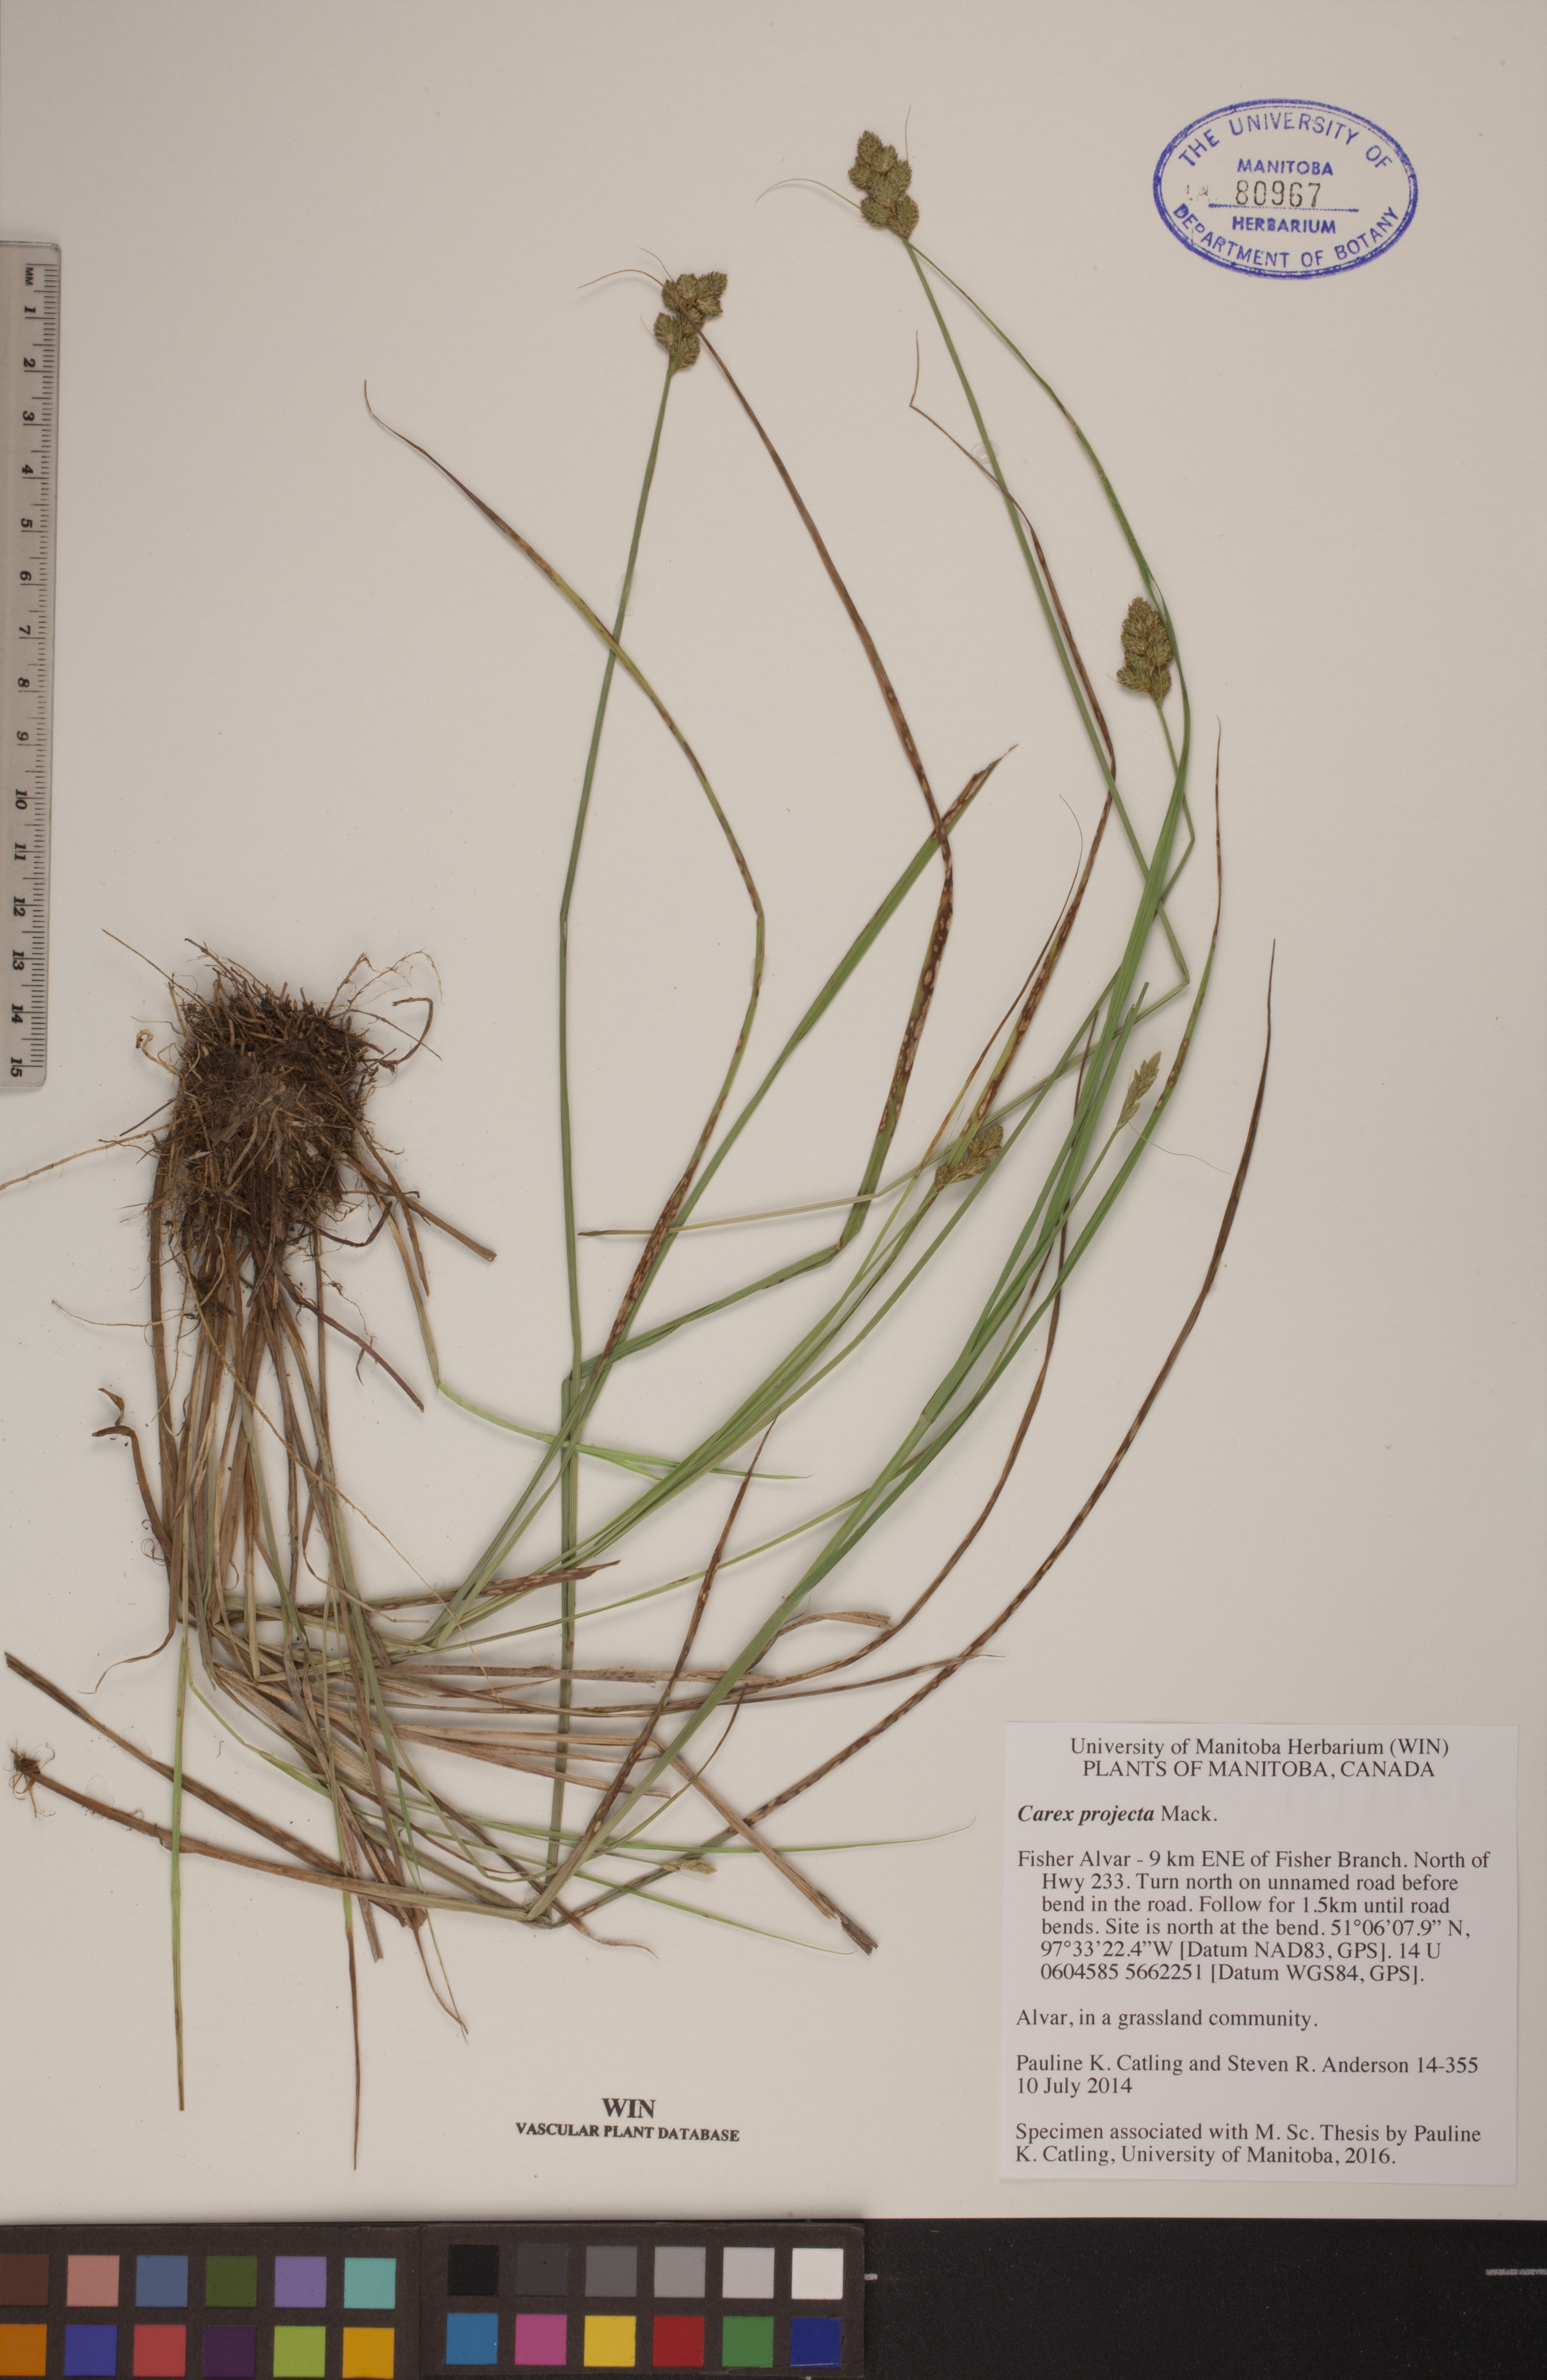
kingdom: Plantae
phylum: Tracheophyta
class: Liliopsida
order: Poales
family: Cyperaceae
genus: Carex
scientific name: Carex projecta
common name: Loose-headed oval sedge
